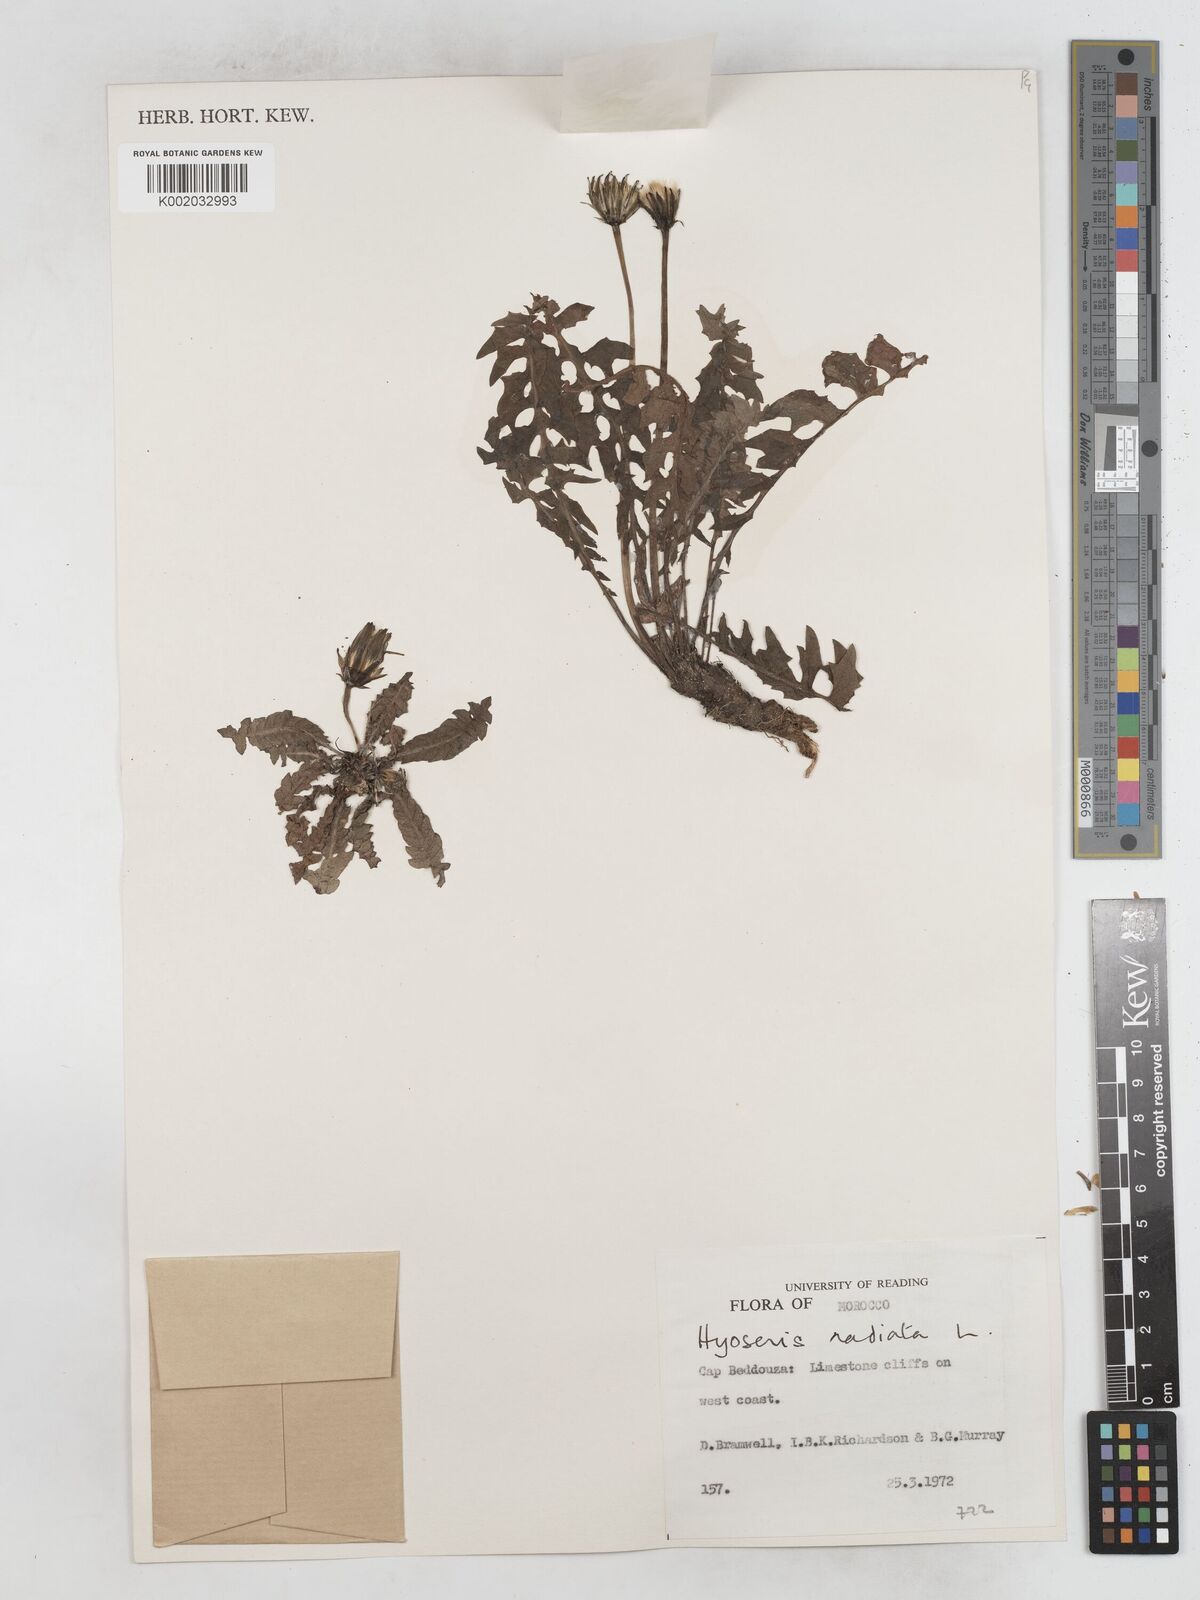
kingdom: Plantae
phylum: Tracheophyta
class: Magnoliopsida
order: Asterales
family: Asteraceae
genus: Hyoseris
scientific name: Hyoseris radiata
